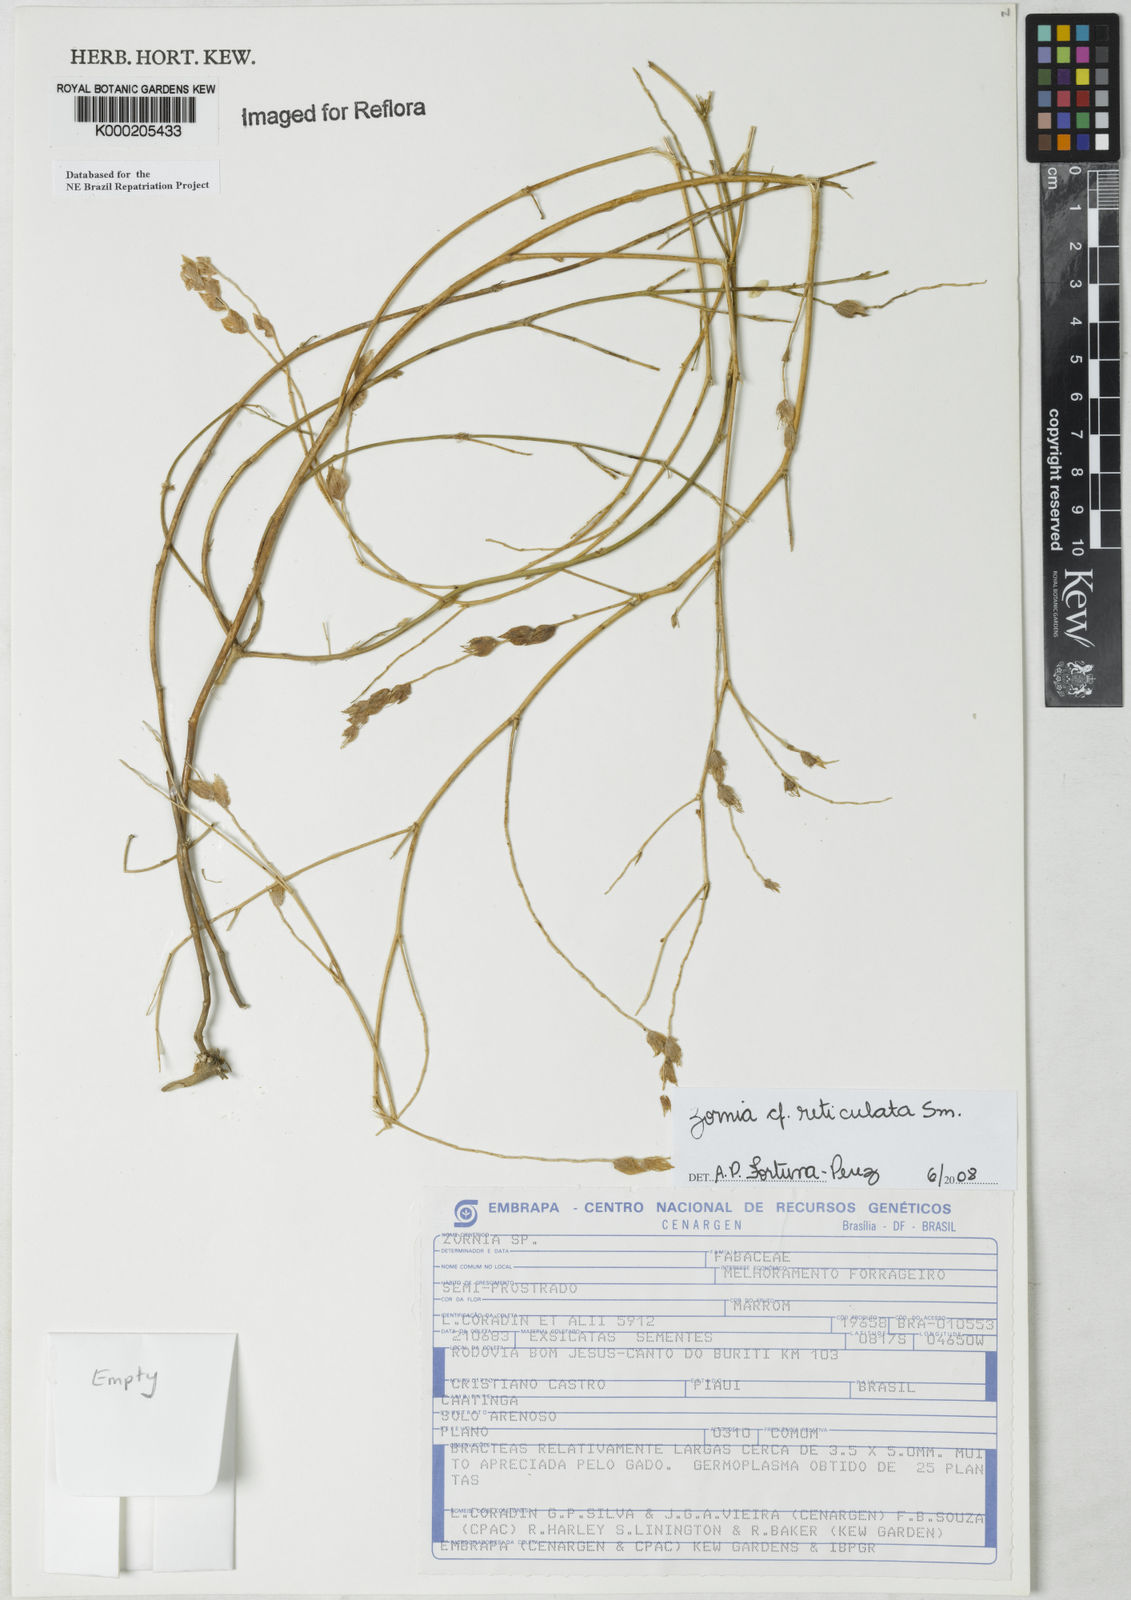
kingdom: Plantae
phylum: Tracheophyta
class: Magnoliopsida
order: Fabales
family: Fabaceae
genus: Zornia
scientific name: Zornia reticulata
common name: Reticulate viperina
